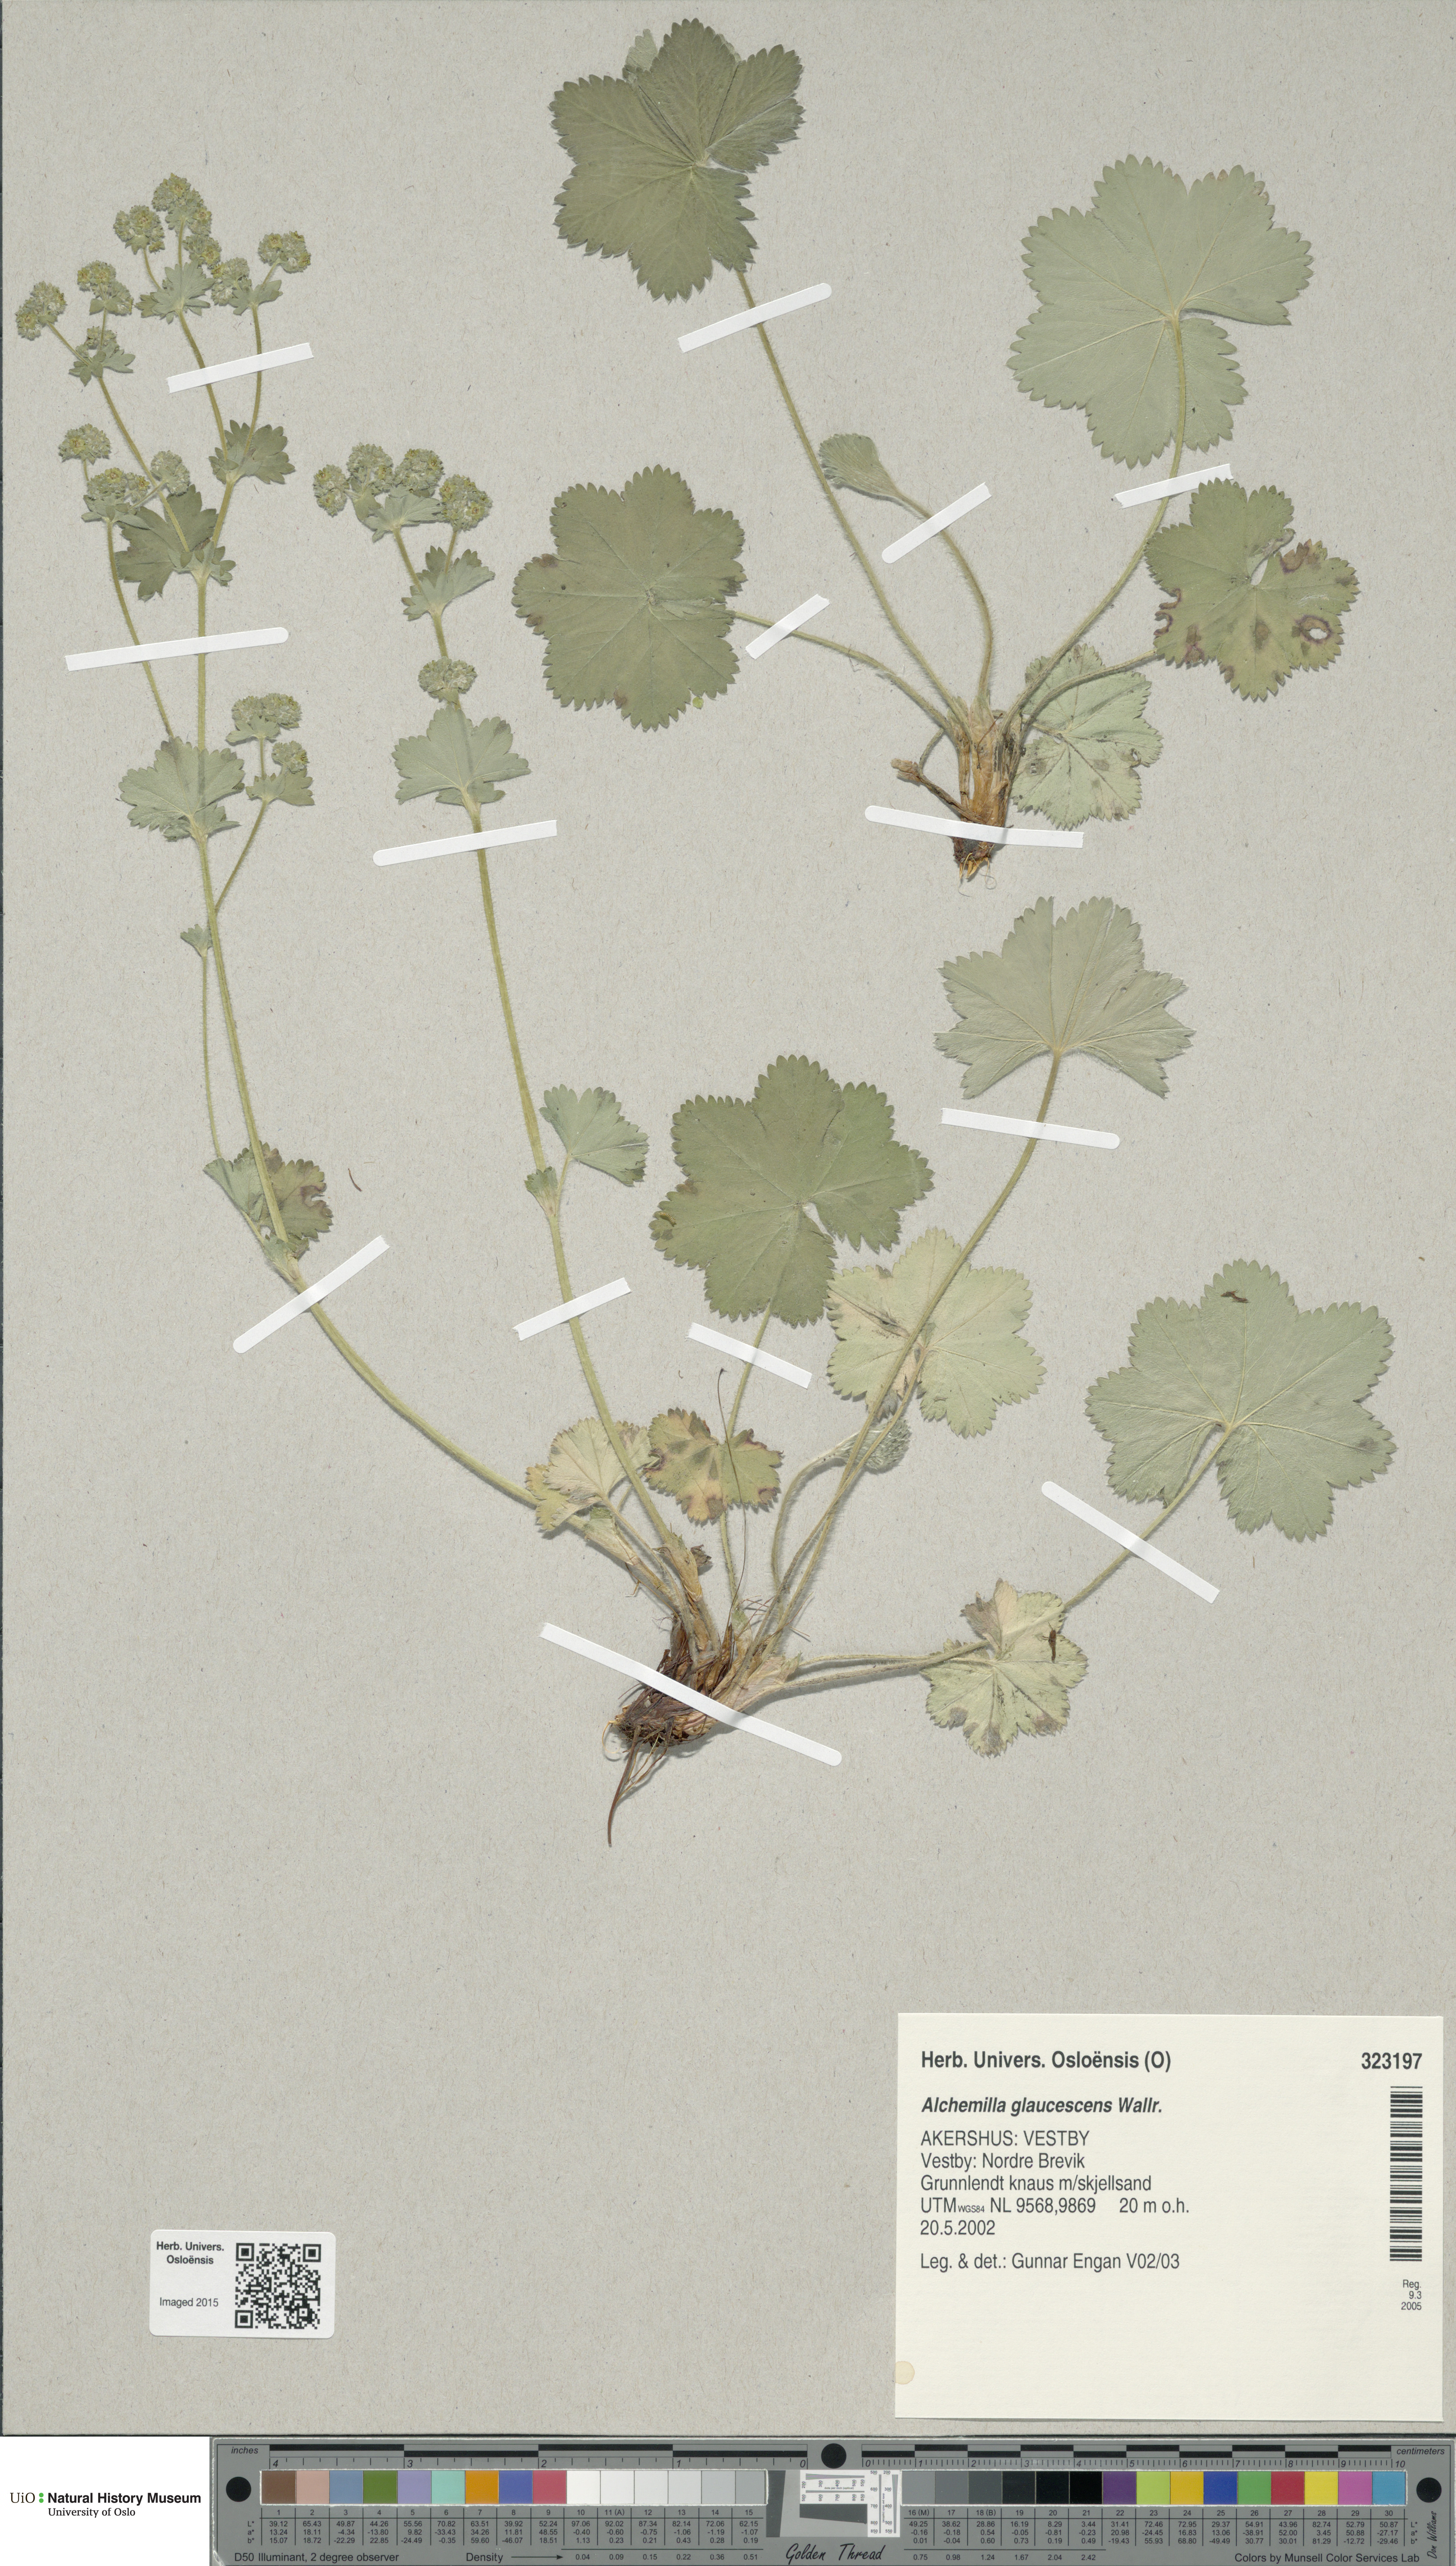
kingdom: Plantae
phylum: Tracheophyta
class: Magnoliopsida
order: Rosales
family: Rosaceae
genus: Alchemilla
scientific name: Alchemilla glaucescens
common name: Silky lady's mantle
